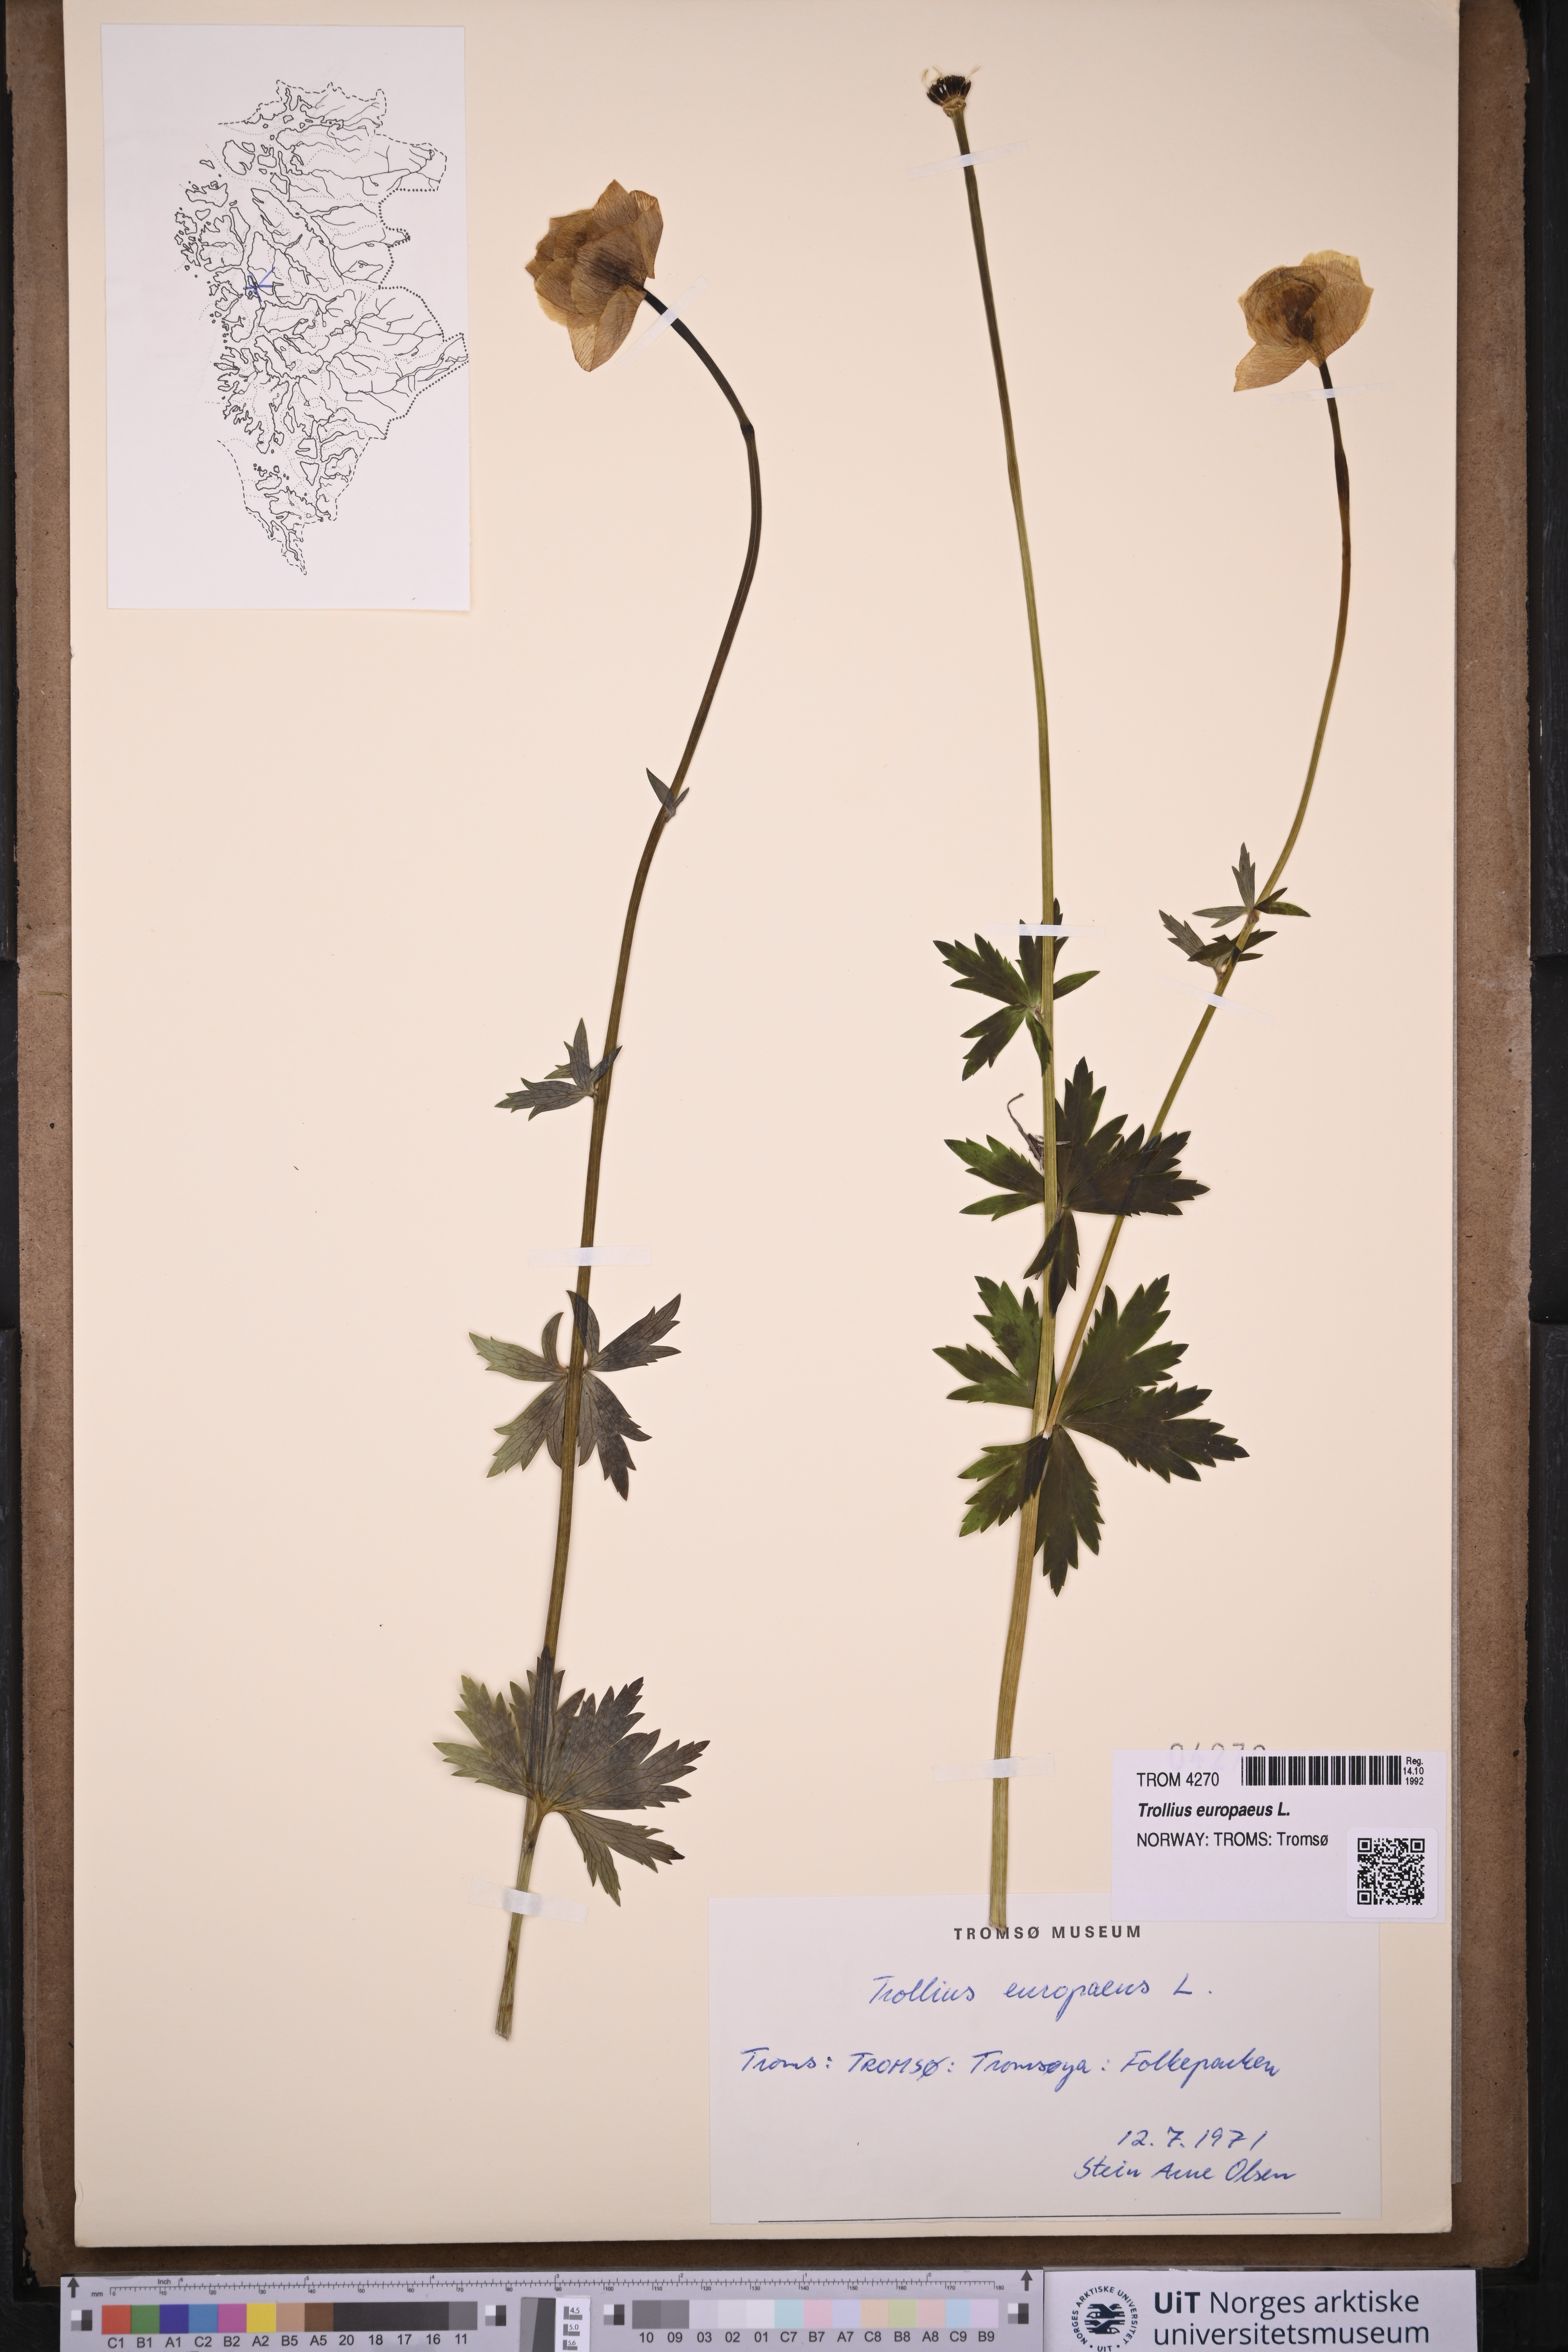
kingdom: Plantae
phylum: Tracheophyta
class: Magnoliopsida
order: Ranunculales
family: Ranunculaceae
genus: Trollius
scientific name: Trollius europaeus
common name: European globeflower
